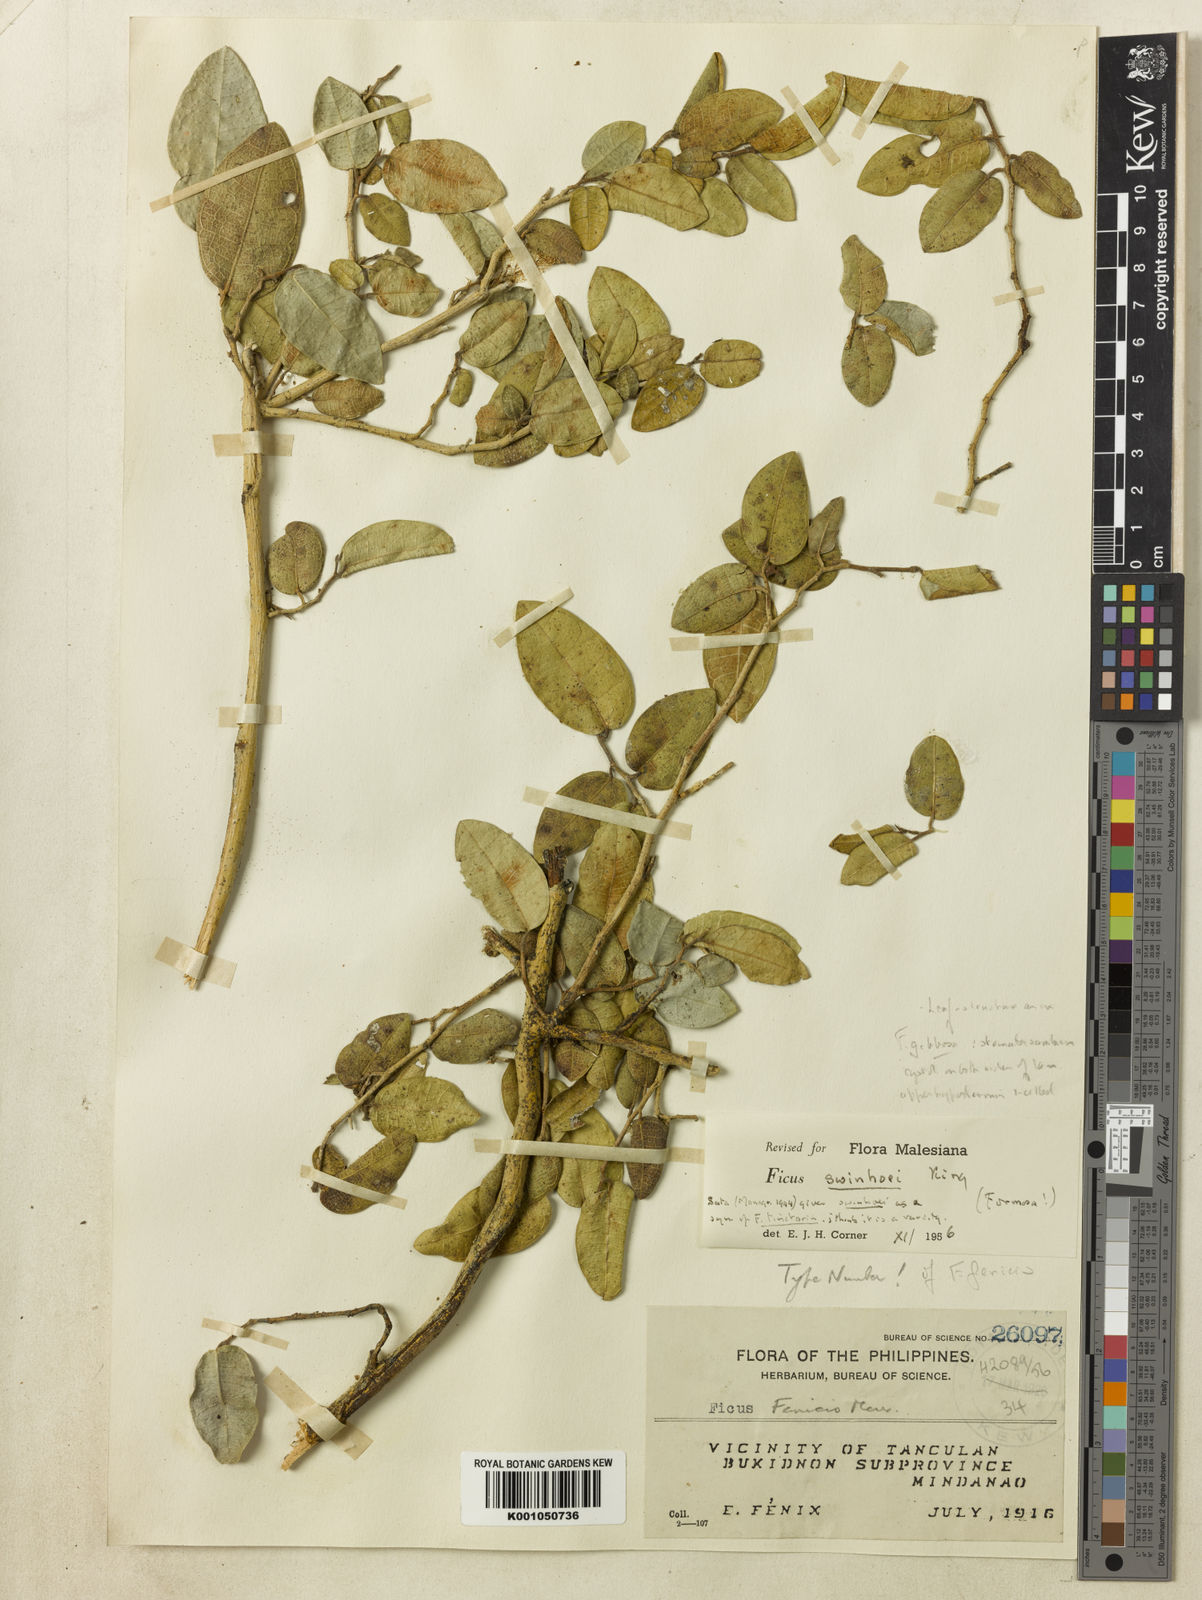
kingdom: Plantae
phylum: Tracheophyta
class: Magnoliopsida
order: Rosales
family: Moraceae
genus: Ficus
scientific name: Ficus tinctoria
